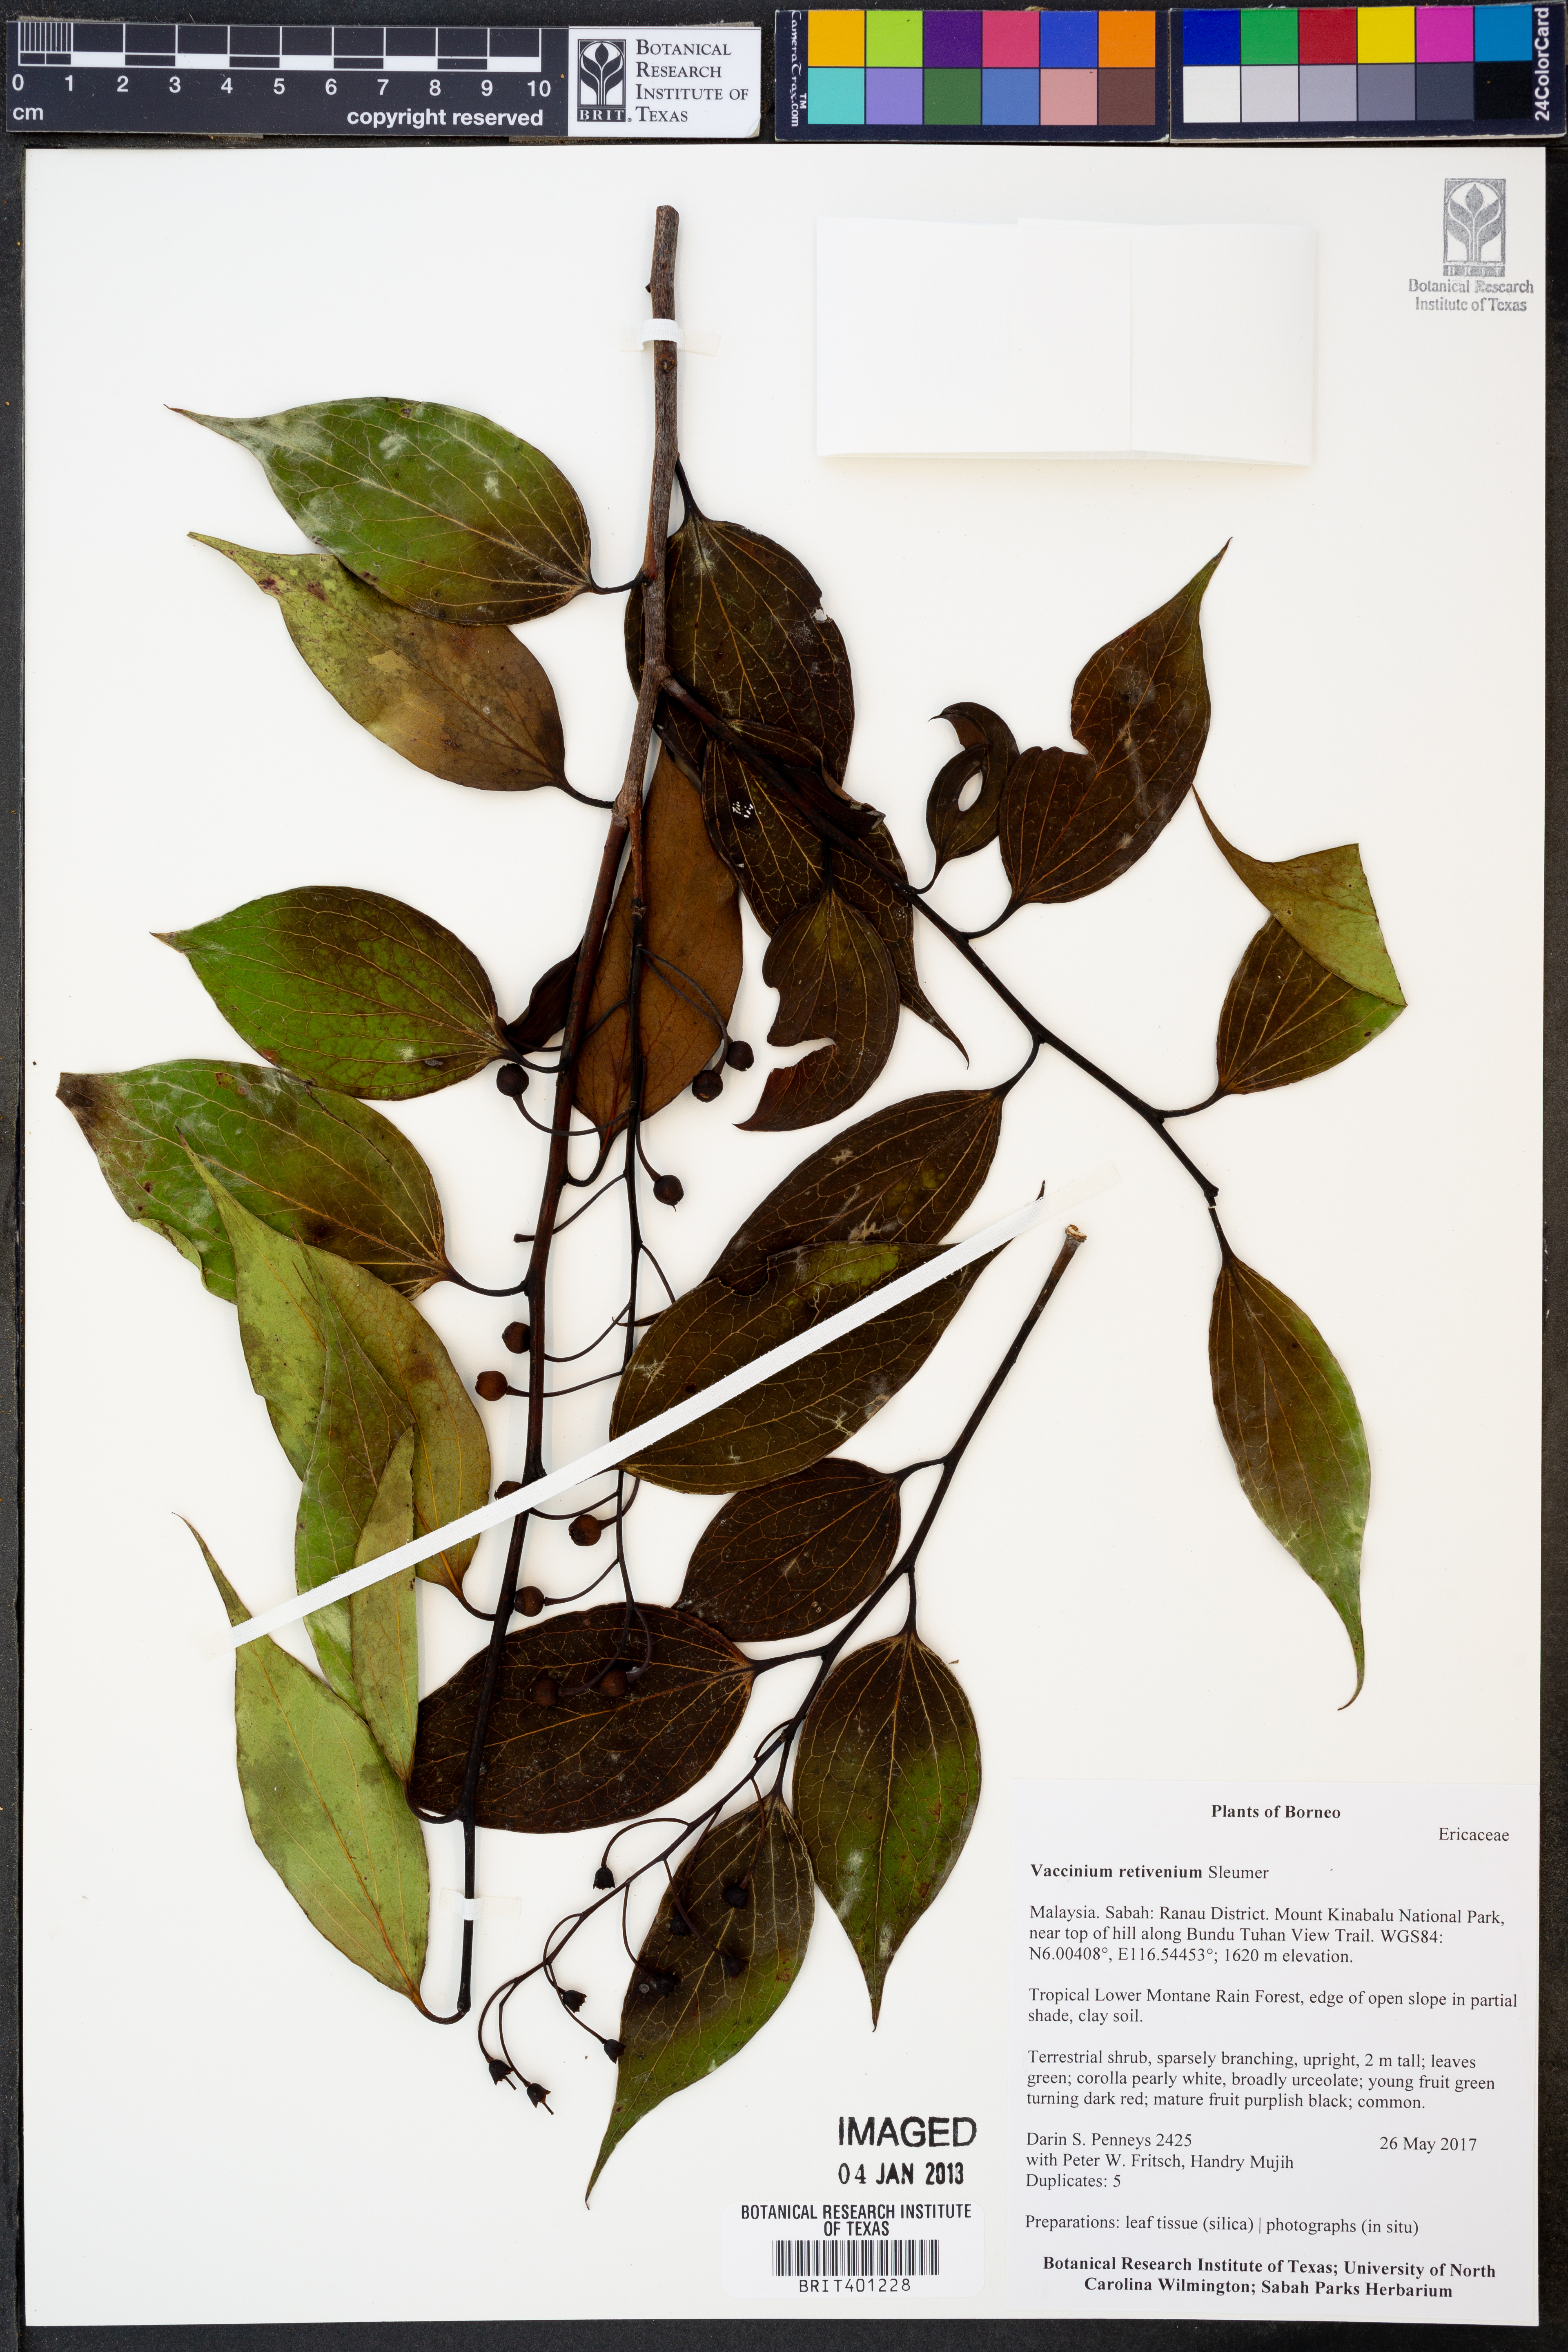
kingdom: Plantae
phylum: Tracheophyta
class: Magnoliopsida
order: Ericales
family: Ericaceae
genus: Vaccinium
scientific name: Vaccinium retivenium
